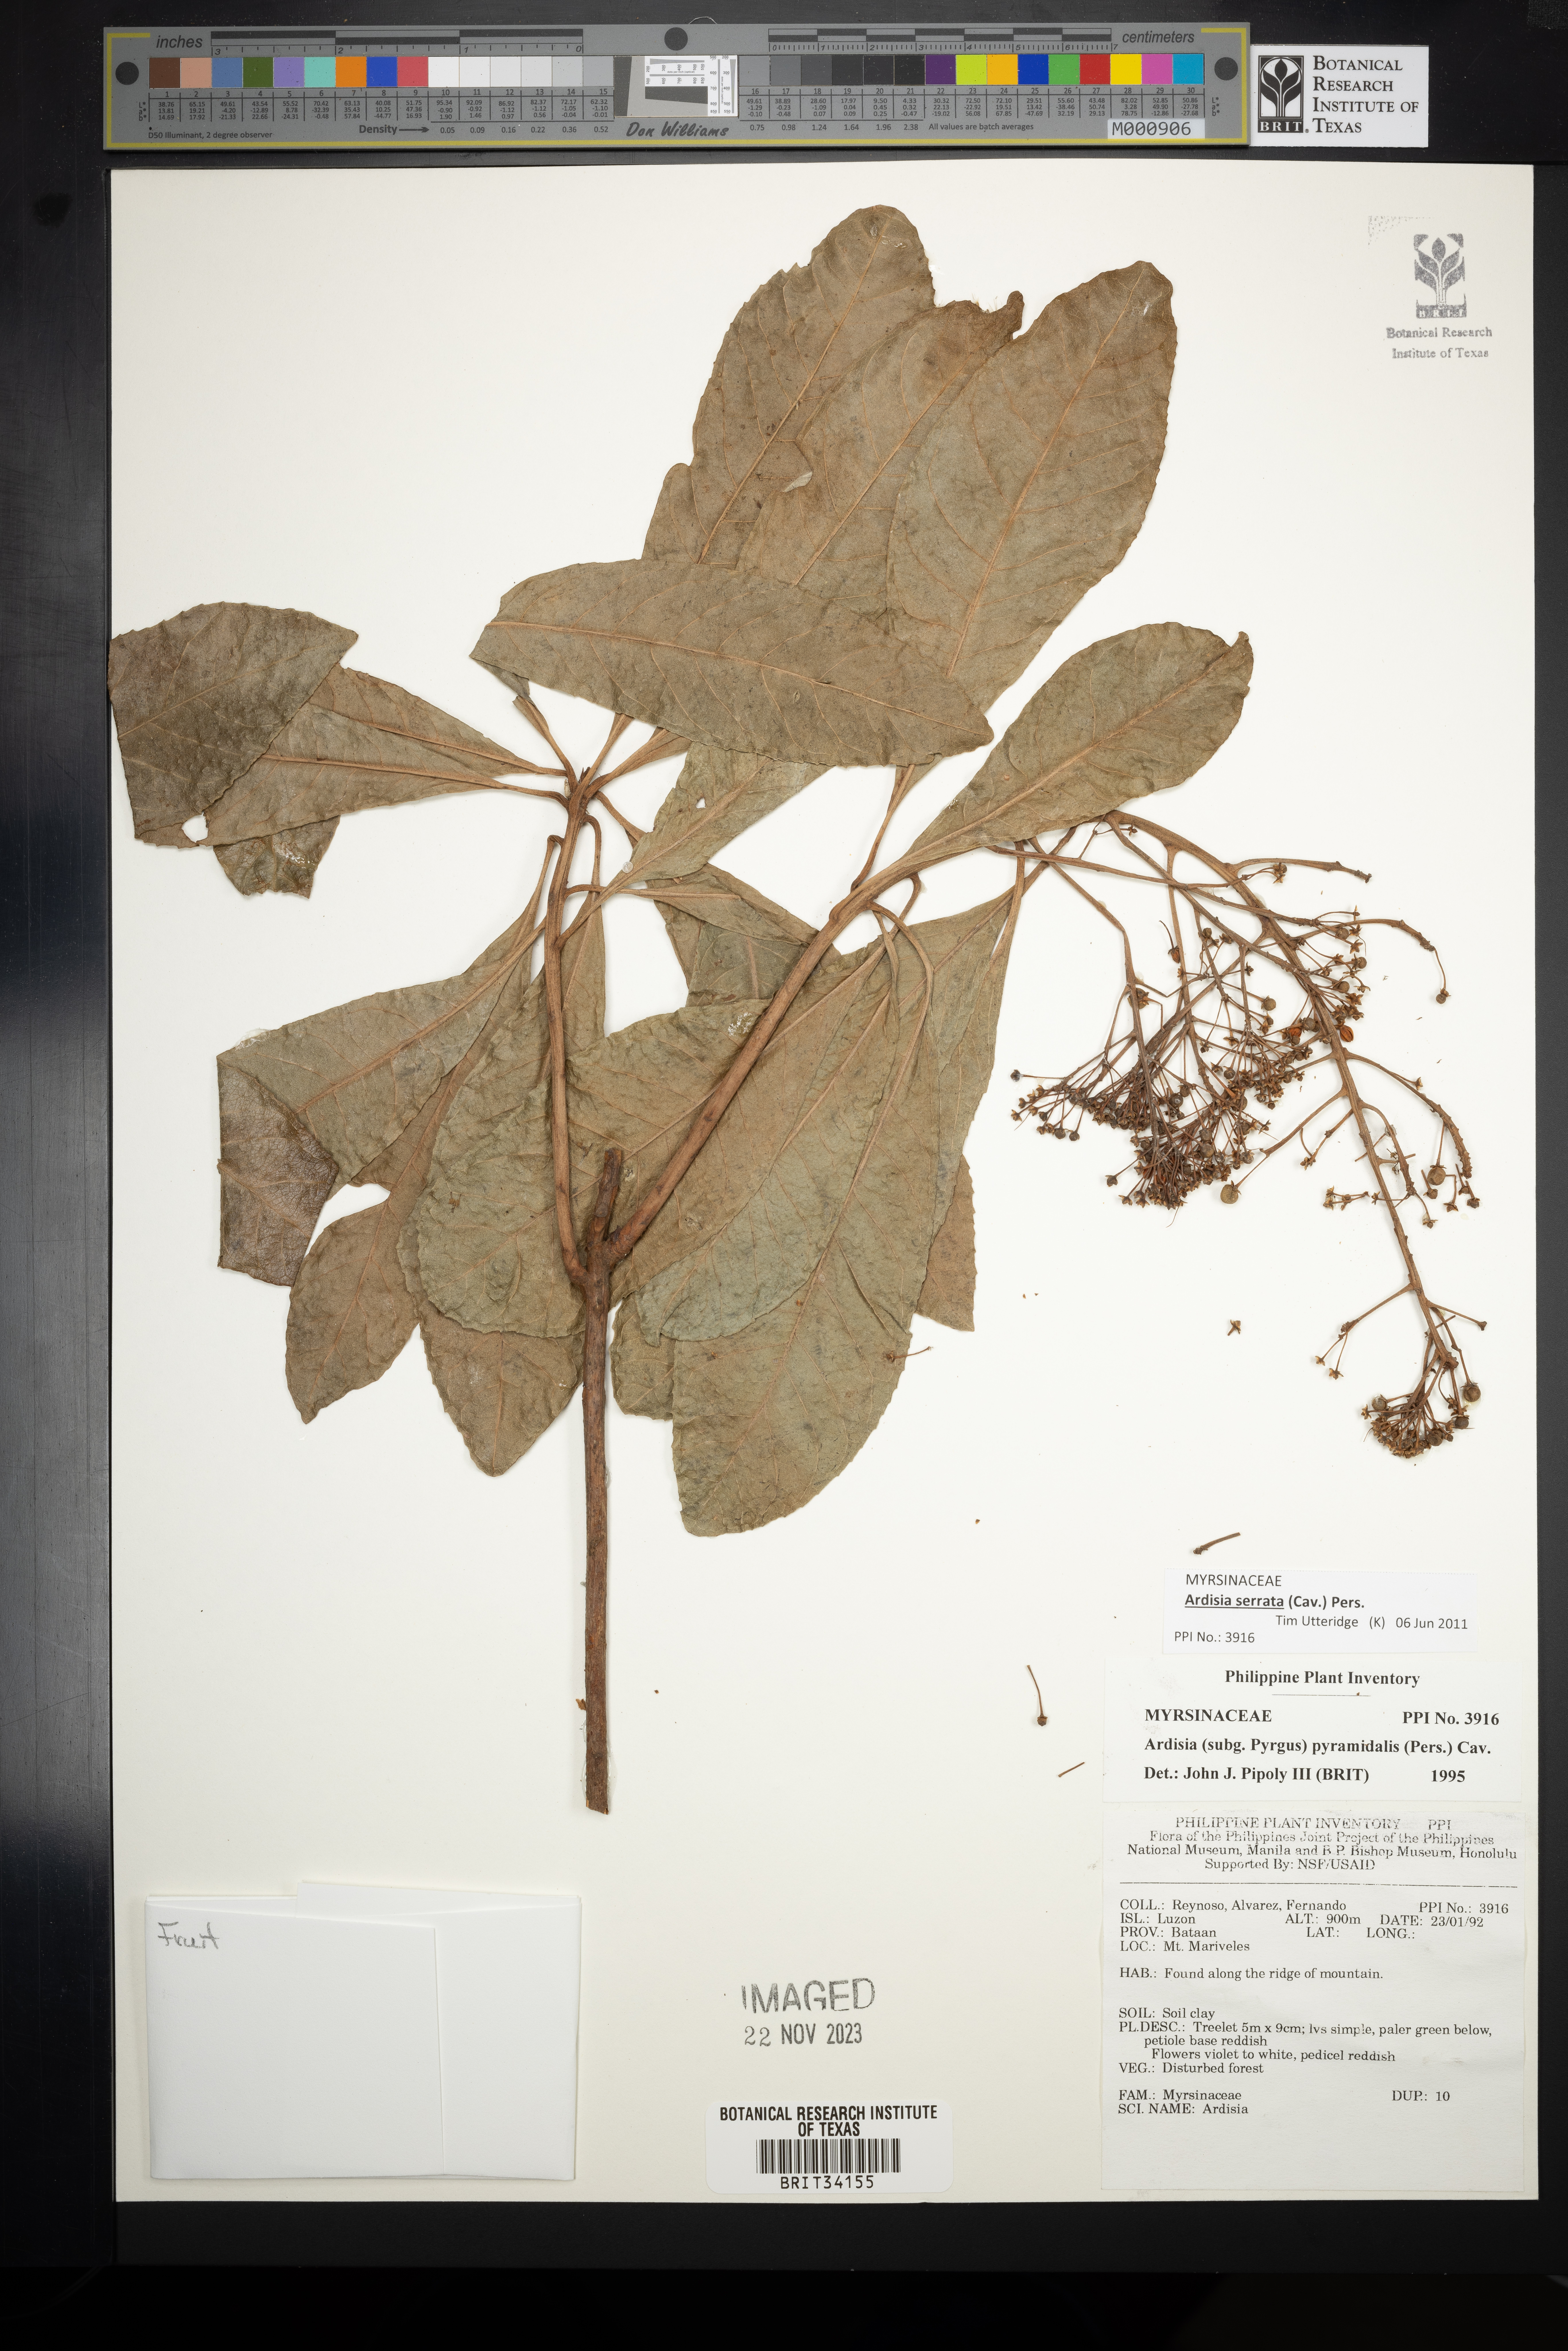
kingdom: Plantae
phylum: Tracheophyta
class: Magnoliopsida
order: Ericales
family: Primulaceae
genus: Ardisia
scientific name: Ardisia pyramidalis
